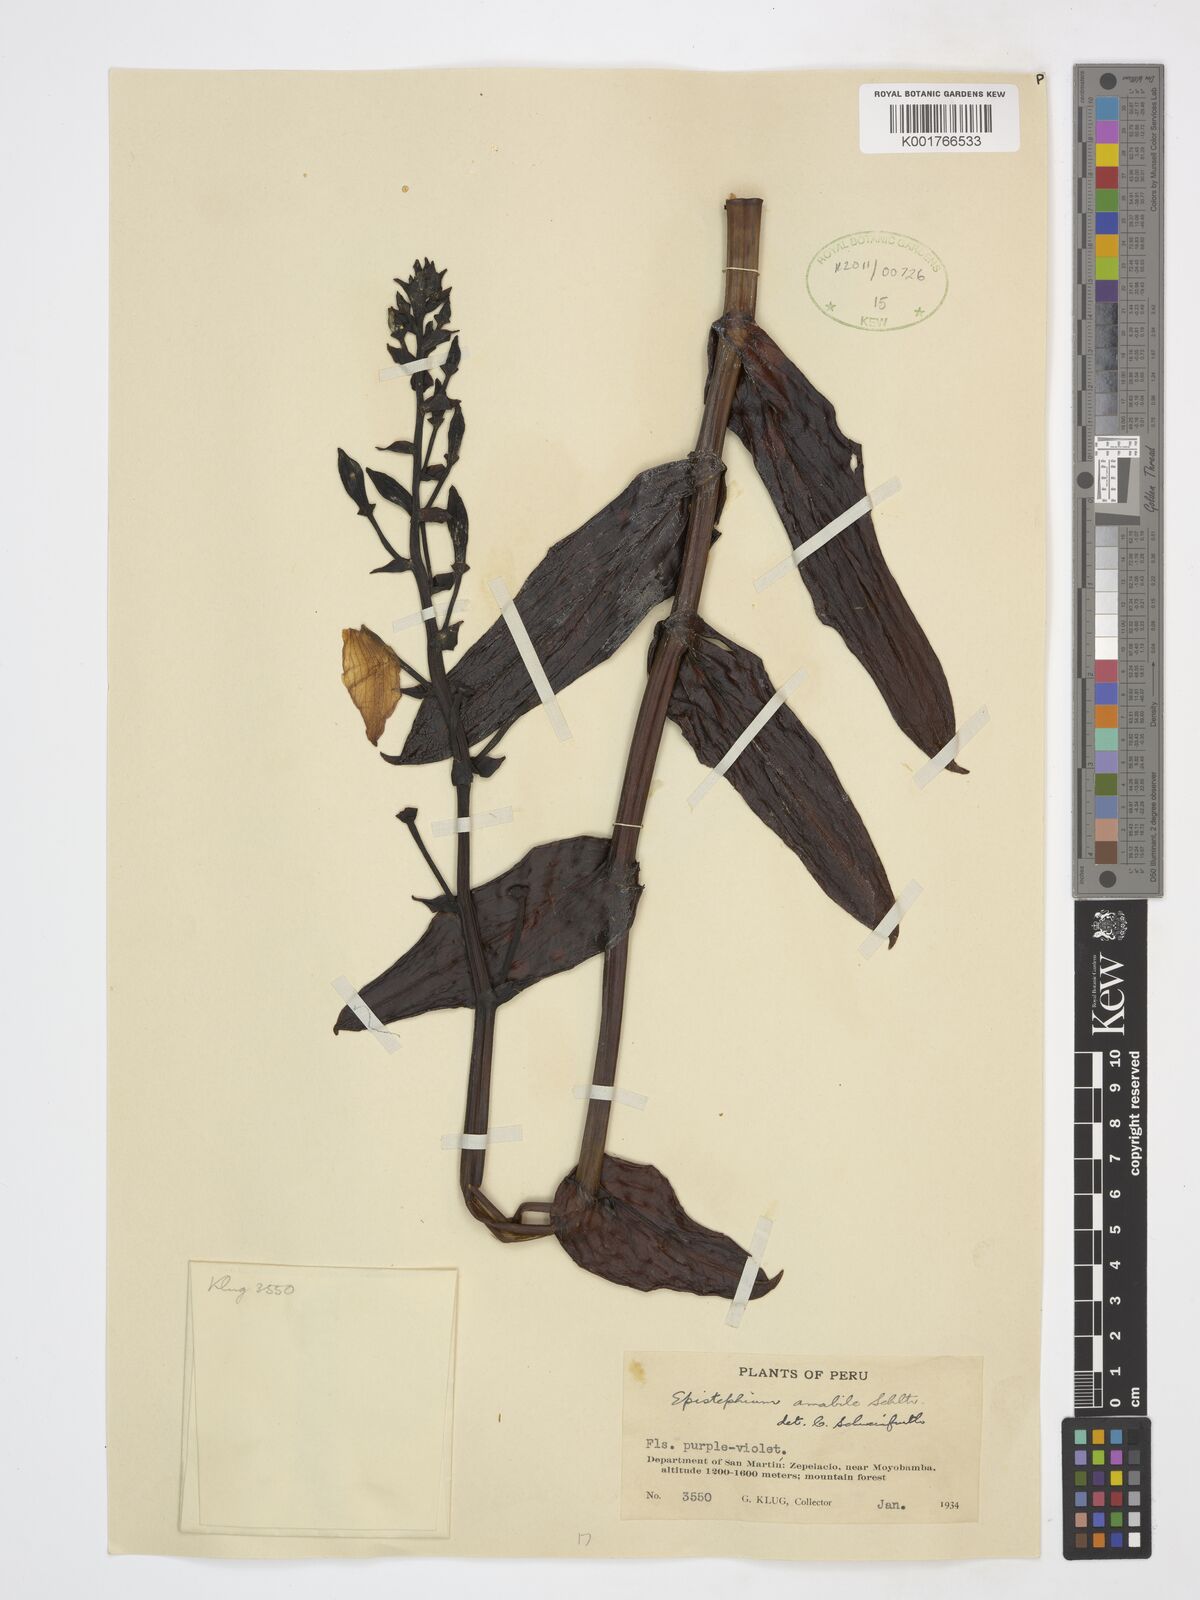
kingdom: Plantae
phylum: Tracheophyta
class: Liliopsida
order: Asparagales
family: Orchidaceae
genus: Epistephium
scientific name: Epistephium amabile
